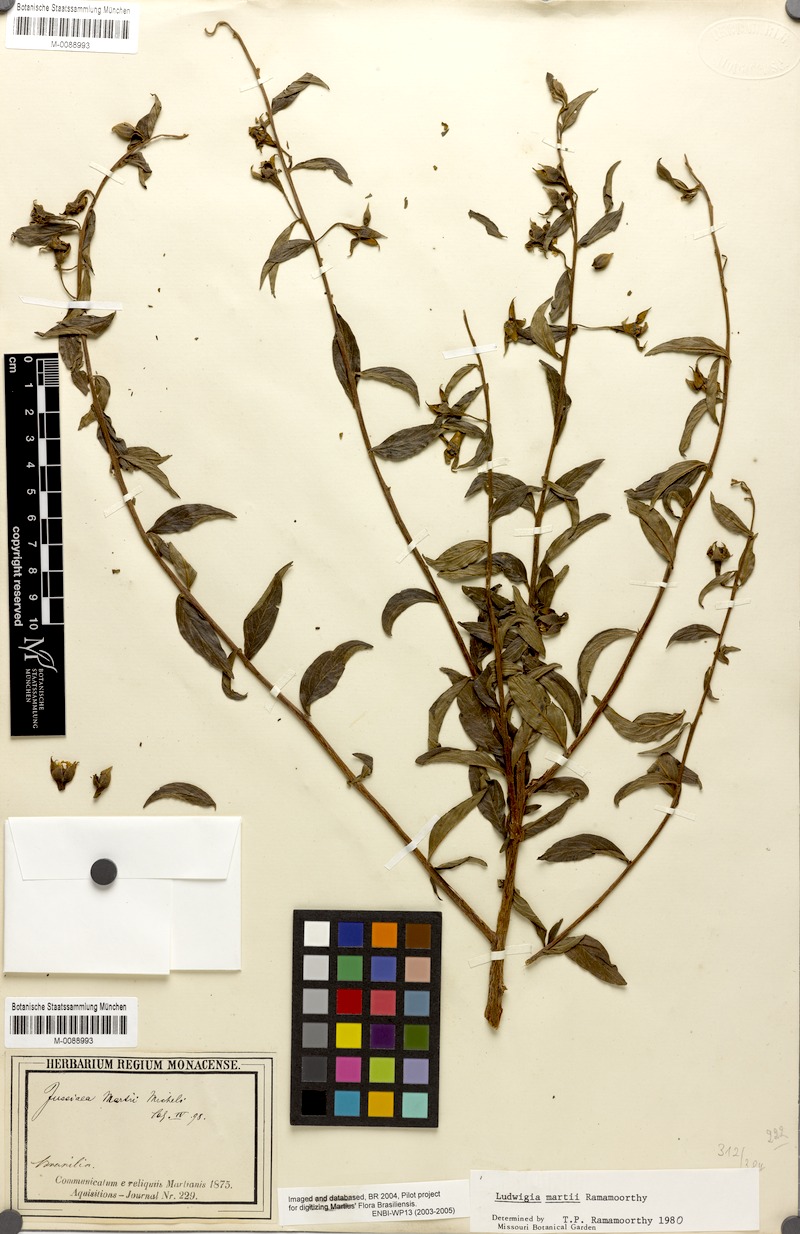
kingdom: Plantae
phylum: Tracheophyta
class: Magnoliopsida
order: Myrtales
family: Onagraceae
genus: Ludwigia
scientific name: Ludwigia martii
